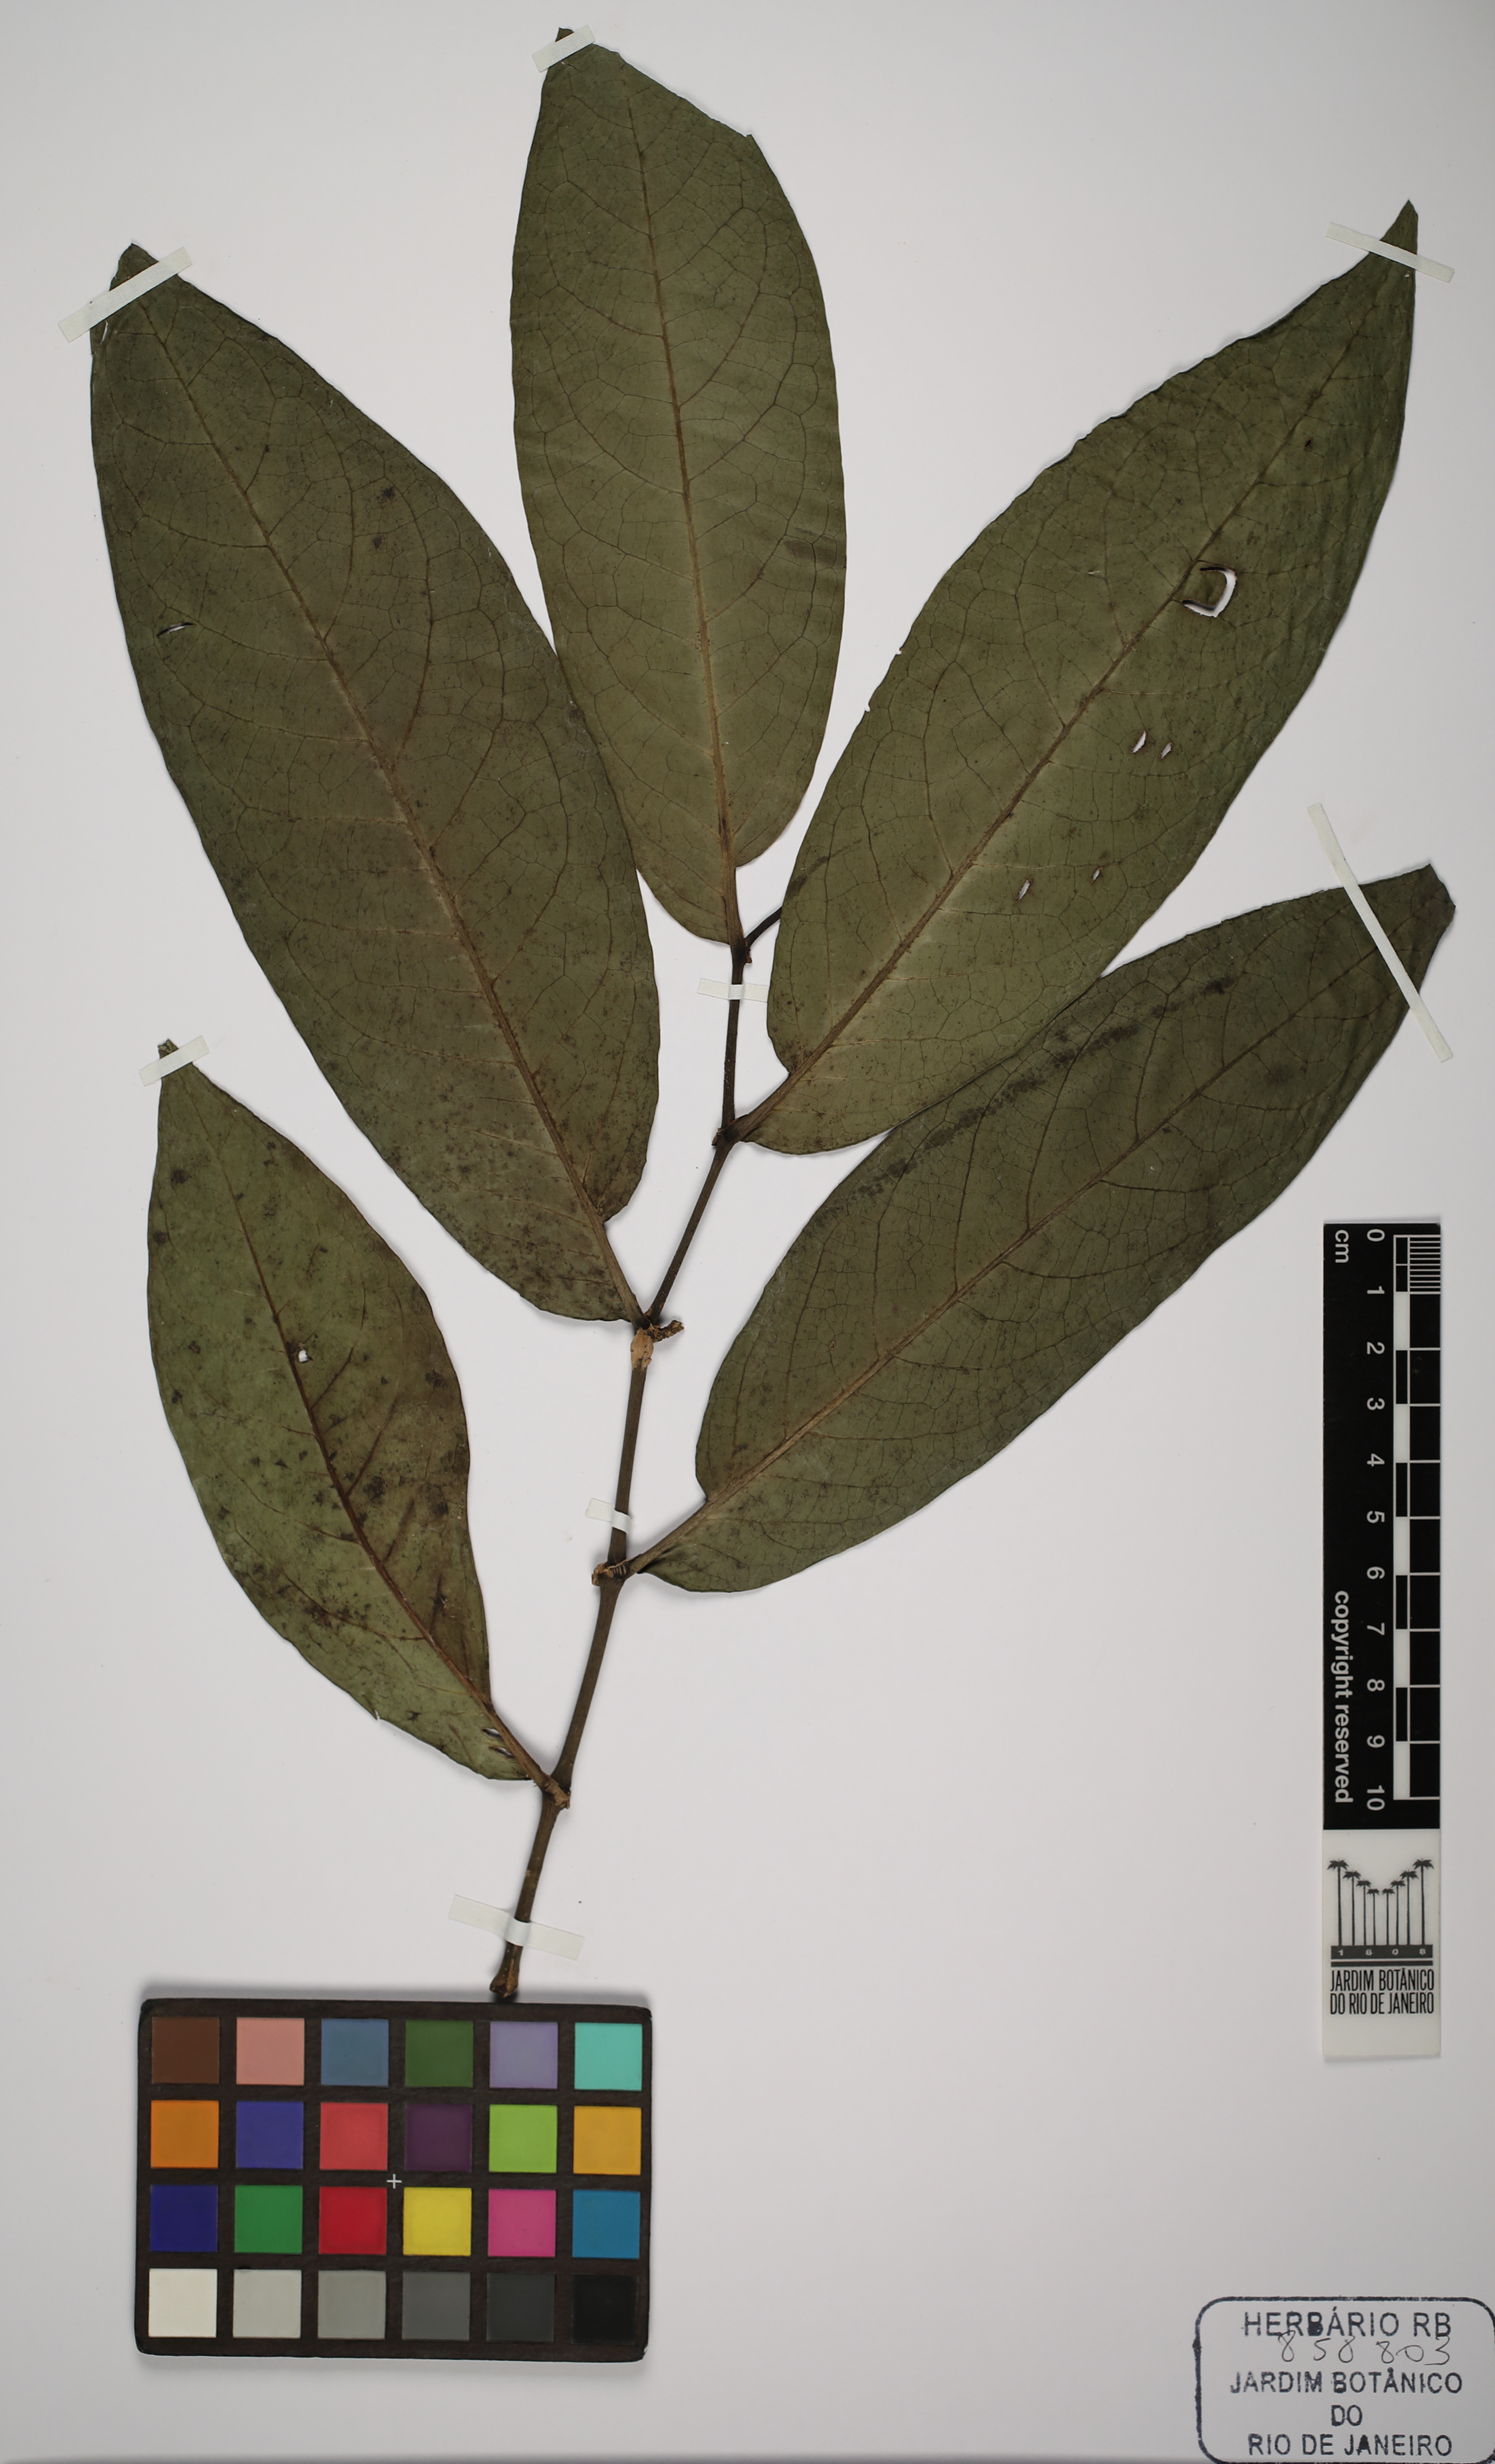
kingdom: Plantae
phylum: Tracheophyta
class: Magnoliopsida
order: Piperales
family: Piperaceae
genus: Piper
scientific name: Piper arboreum
